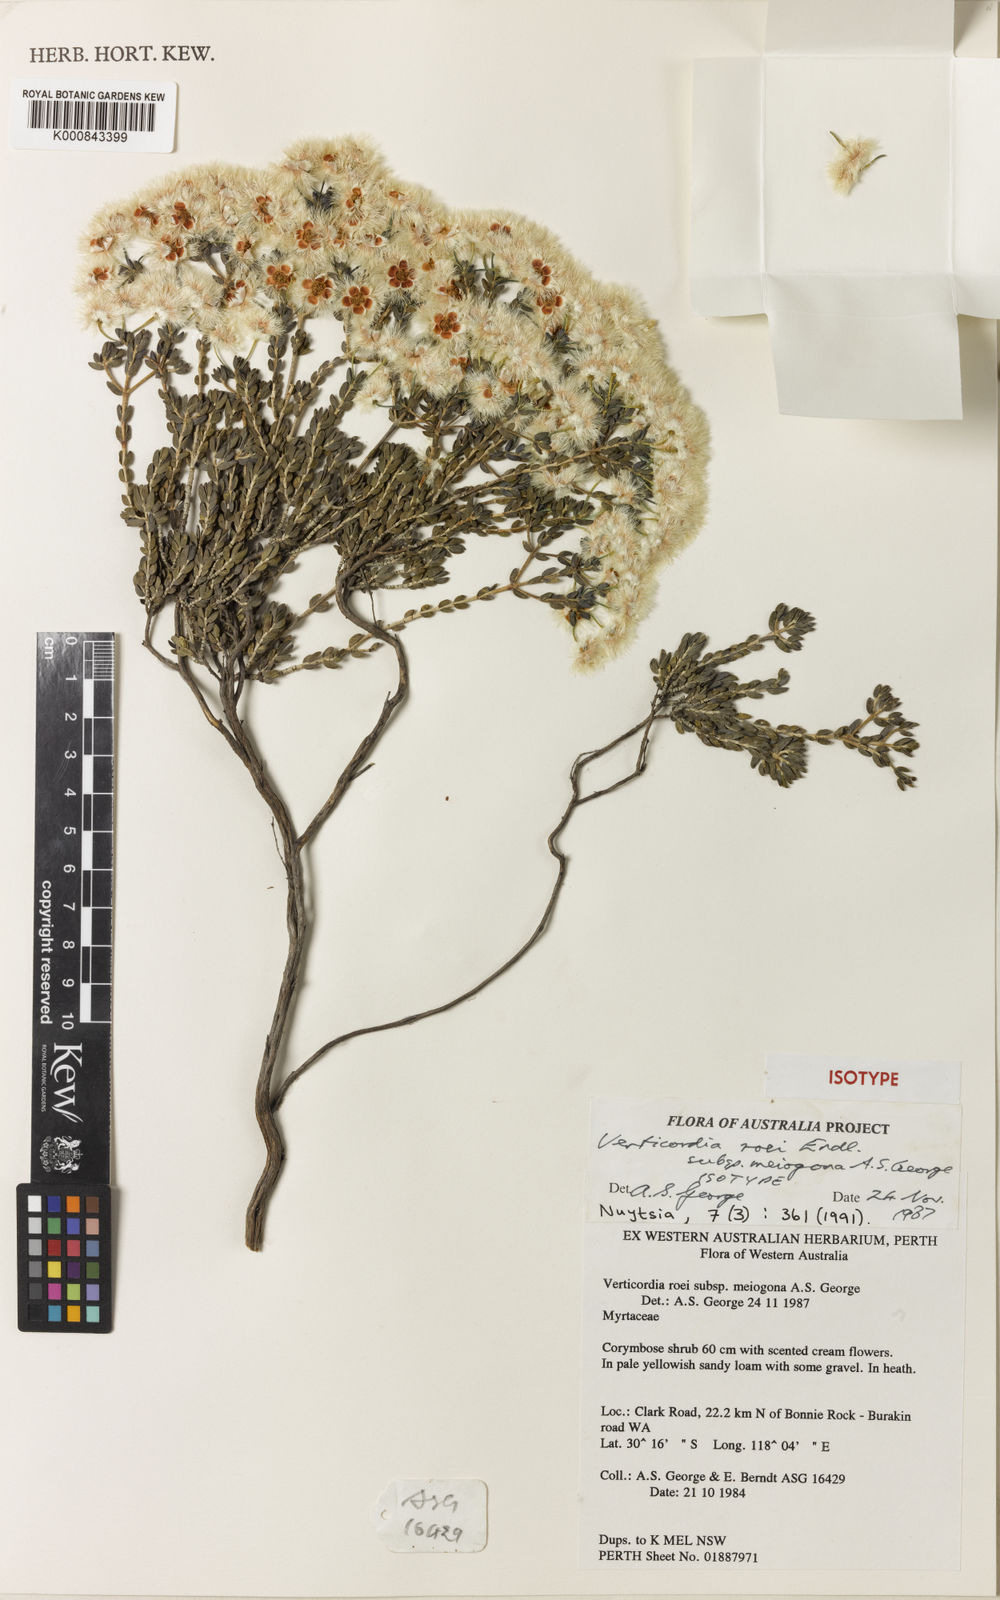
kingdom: Plantae
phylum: Tracheophyta
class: Magnoliopsida
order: Myrtales
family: Myrtaceae
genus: Verticordia
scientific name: Verticordia roei
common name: Roe's feather-flower
